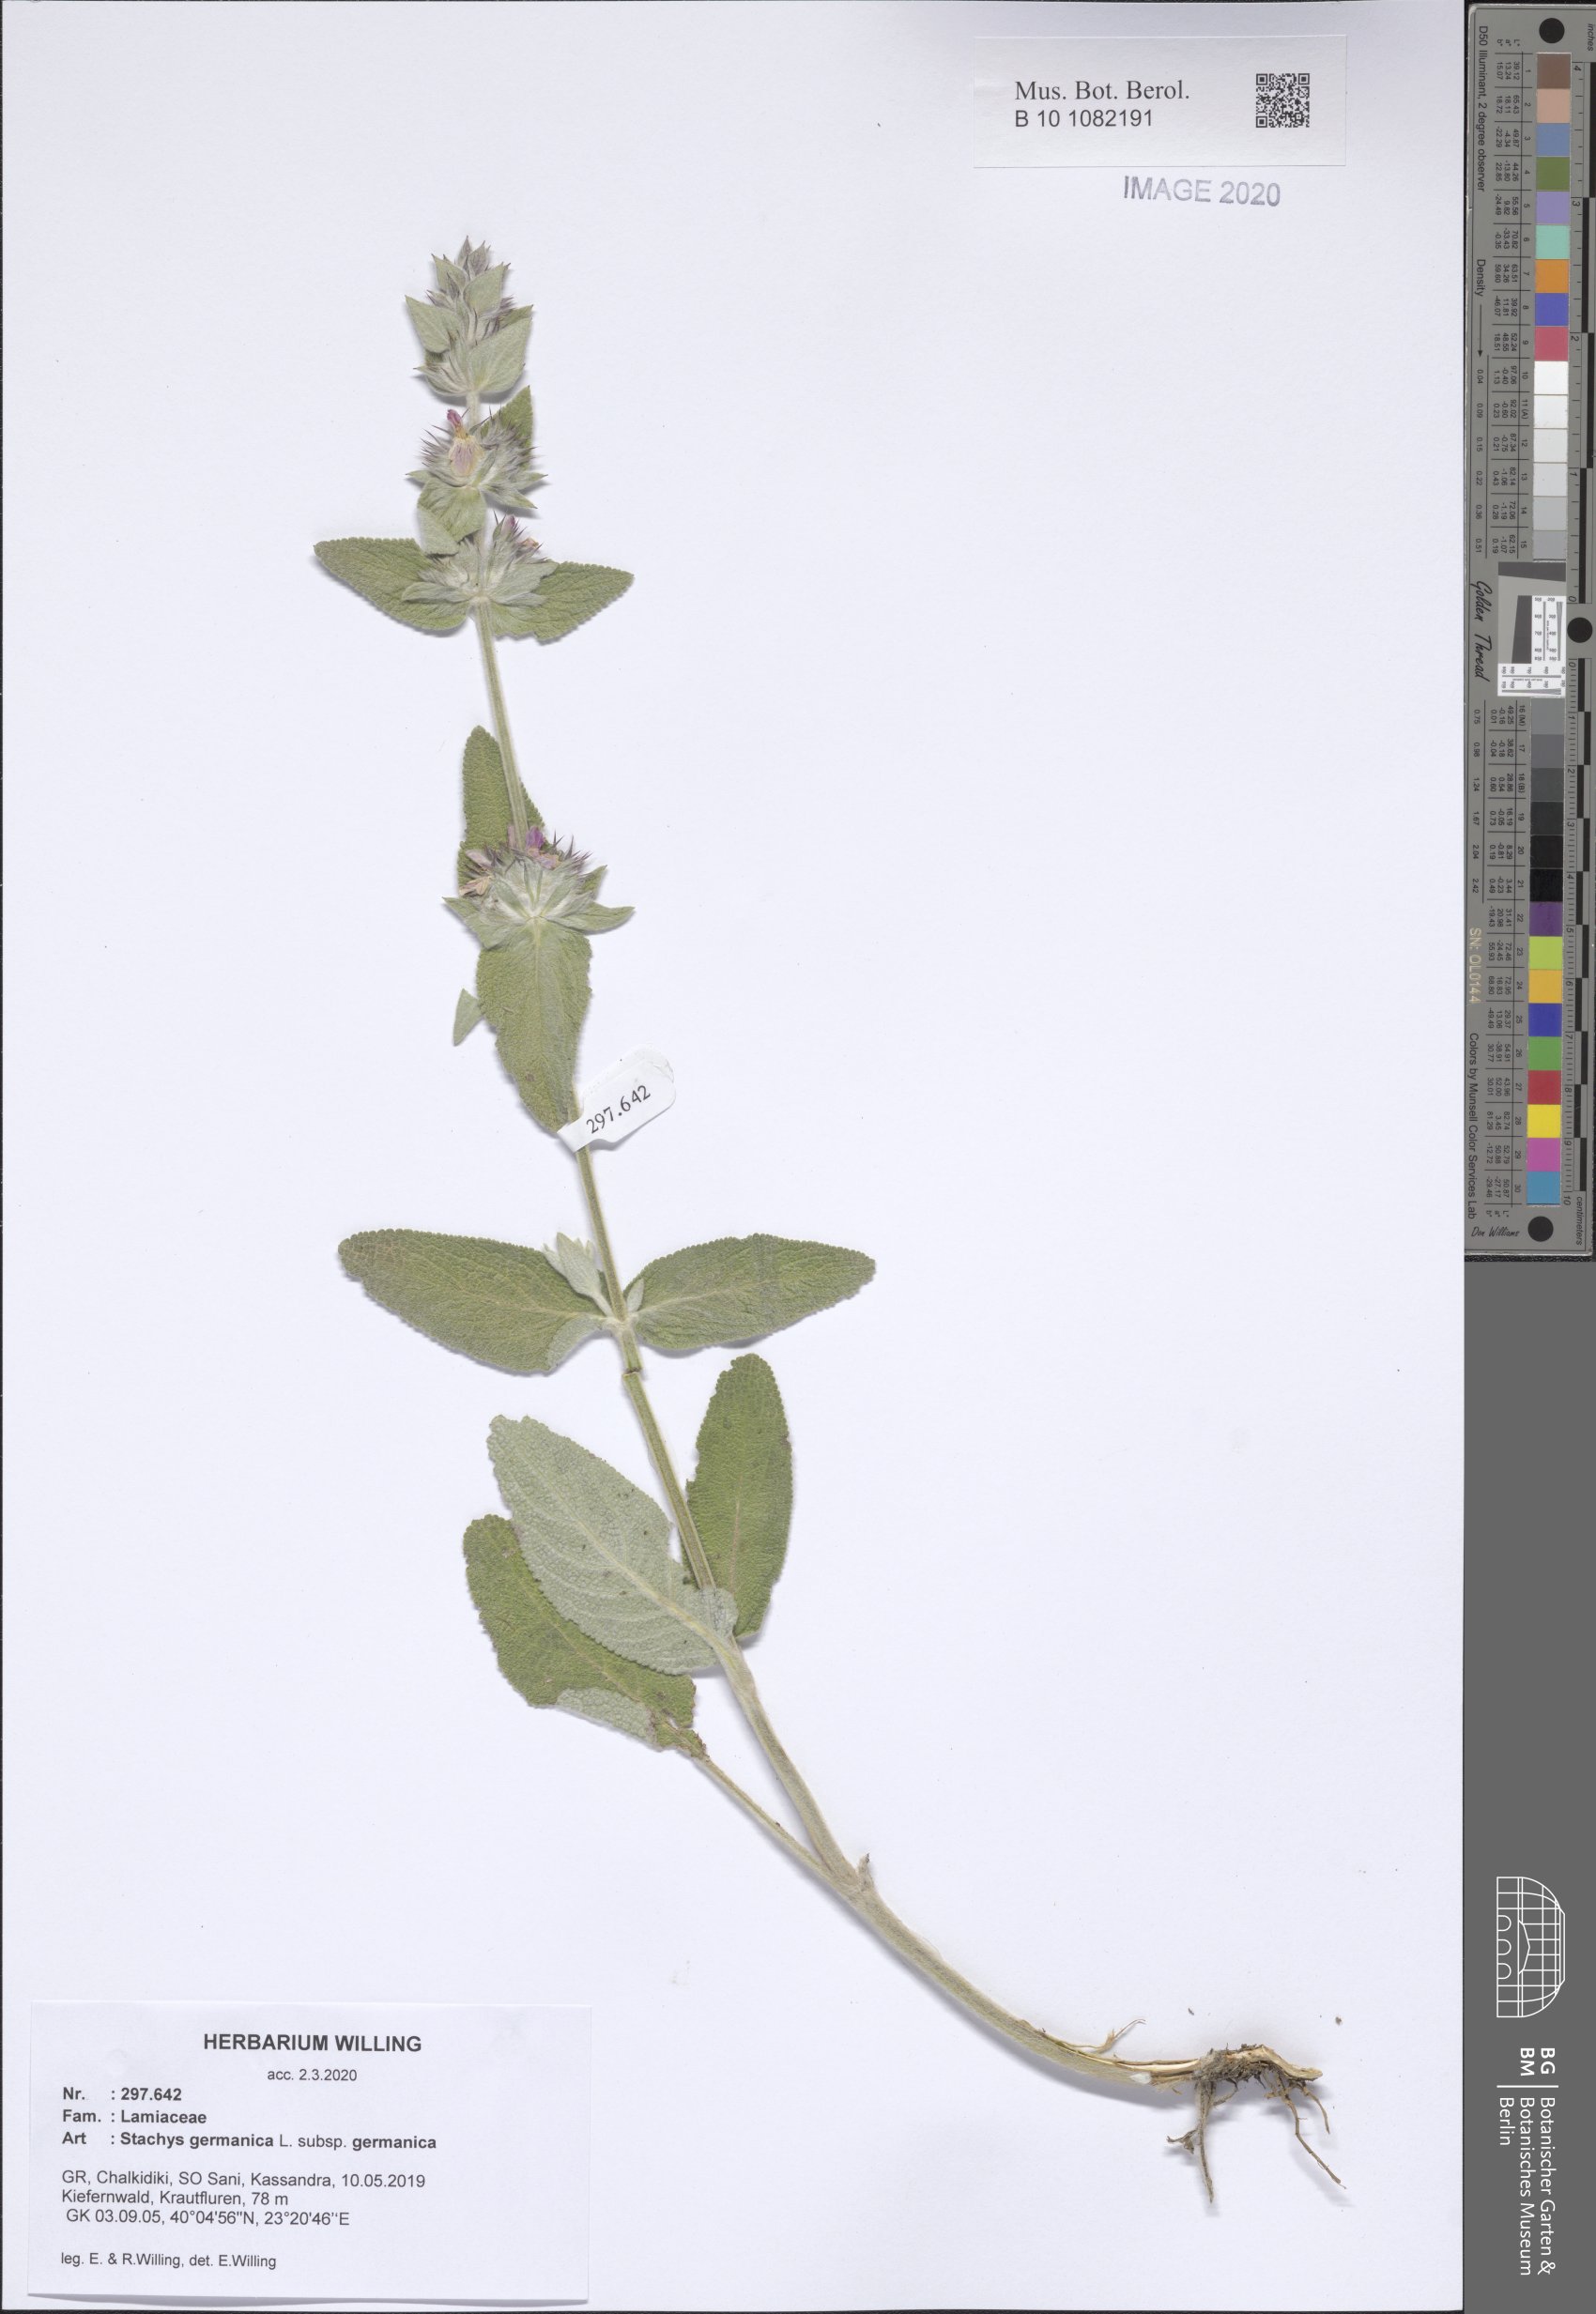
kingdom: Plantae
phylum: Tracheophyta
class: Magnoliopsida
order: Lamiales
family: Lamiaceae
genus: Stachys
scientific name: Stachys germanica
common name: Downy woundwort
